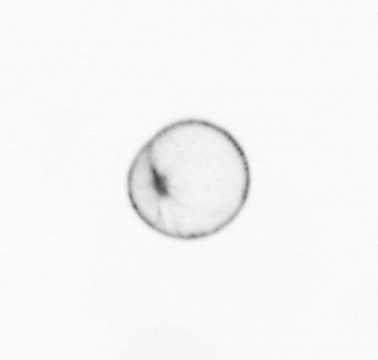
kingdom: Chromista
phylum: Myzozoa
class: Dinophyceae
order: Noctilucales
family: Noctilucaceae
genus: Noctiluca
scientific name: Noctiluca scintillans
